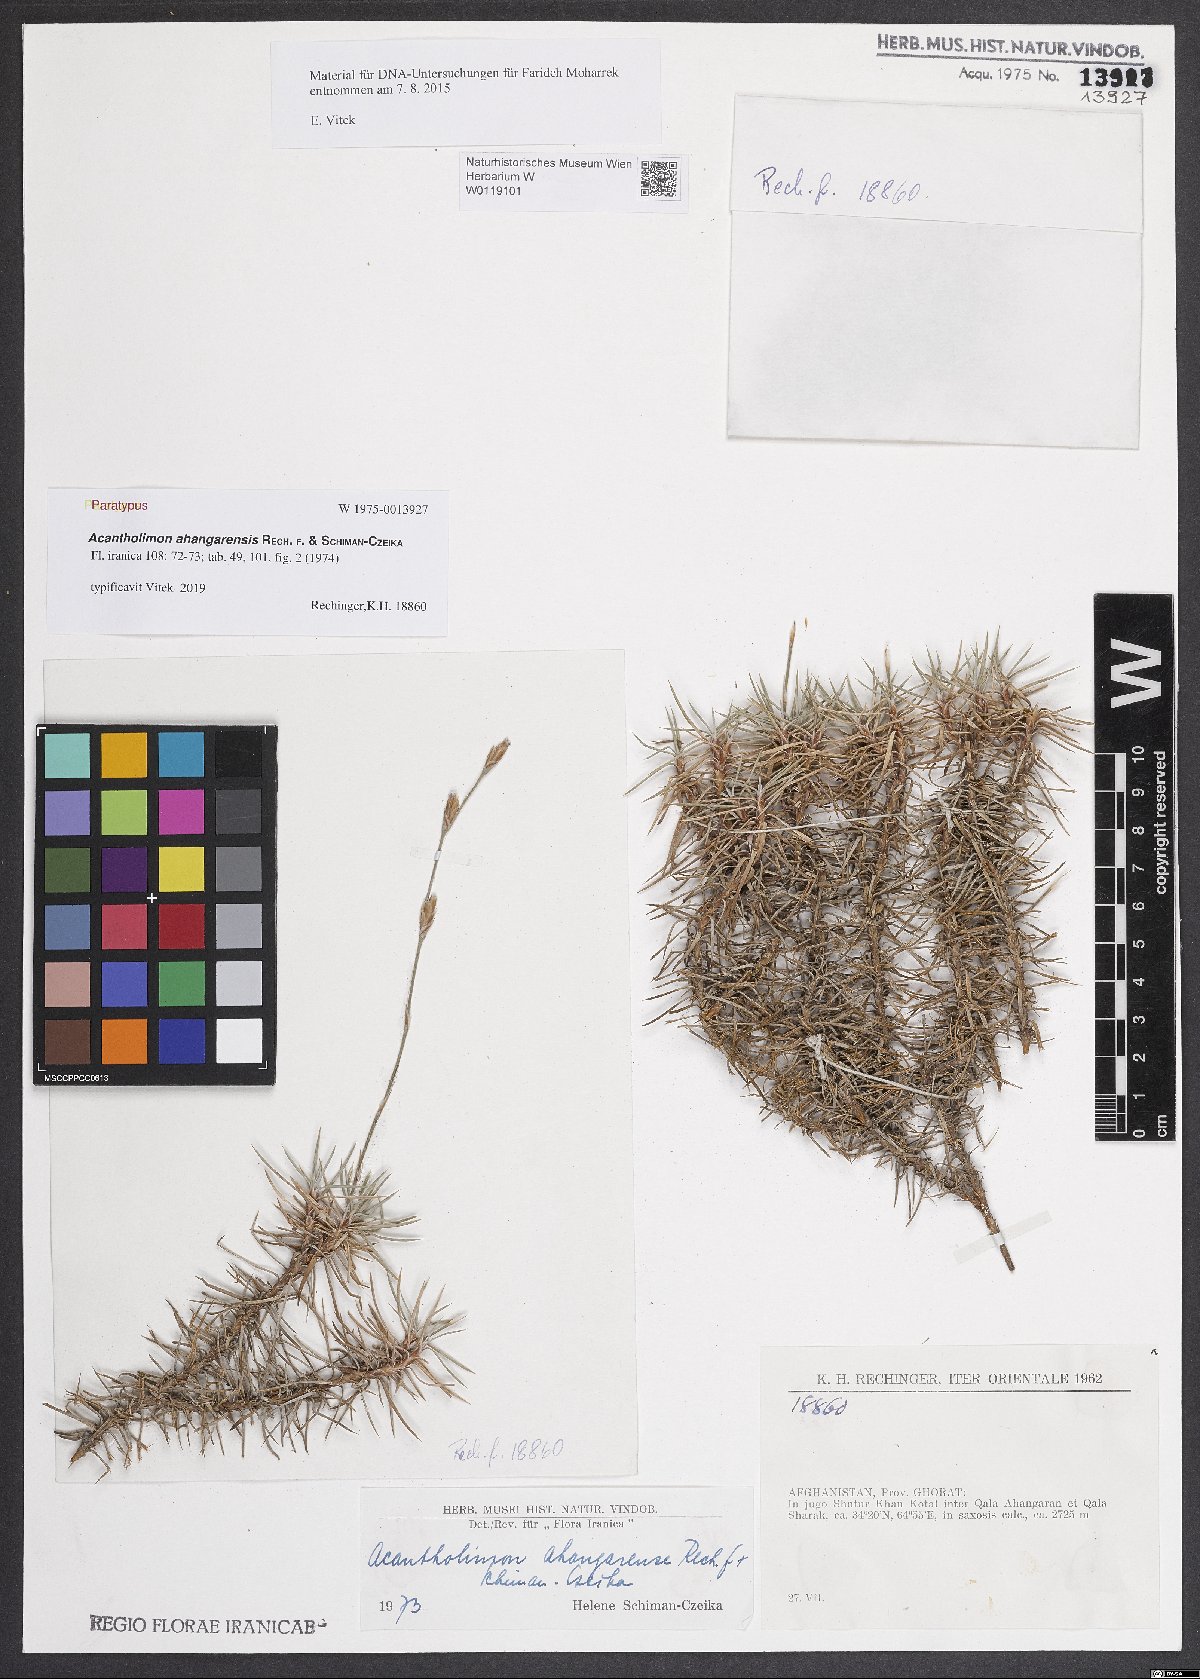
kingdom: Plantae
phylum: Tracheophyta
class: Magnoliopsida
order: Caryophyllales
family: Plumbaginaceae
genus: Acantholimon
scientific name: Acantholimon ahangarensis
